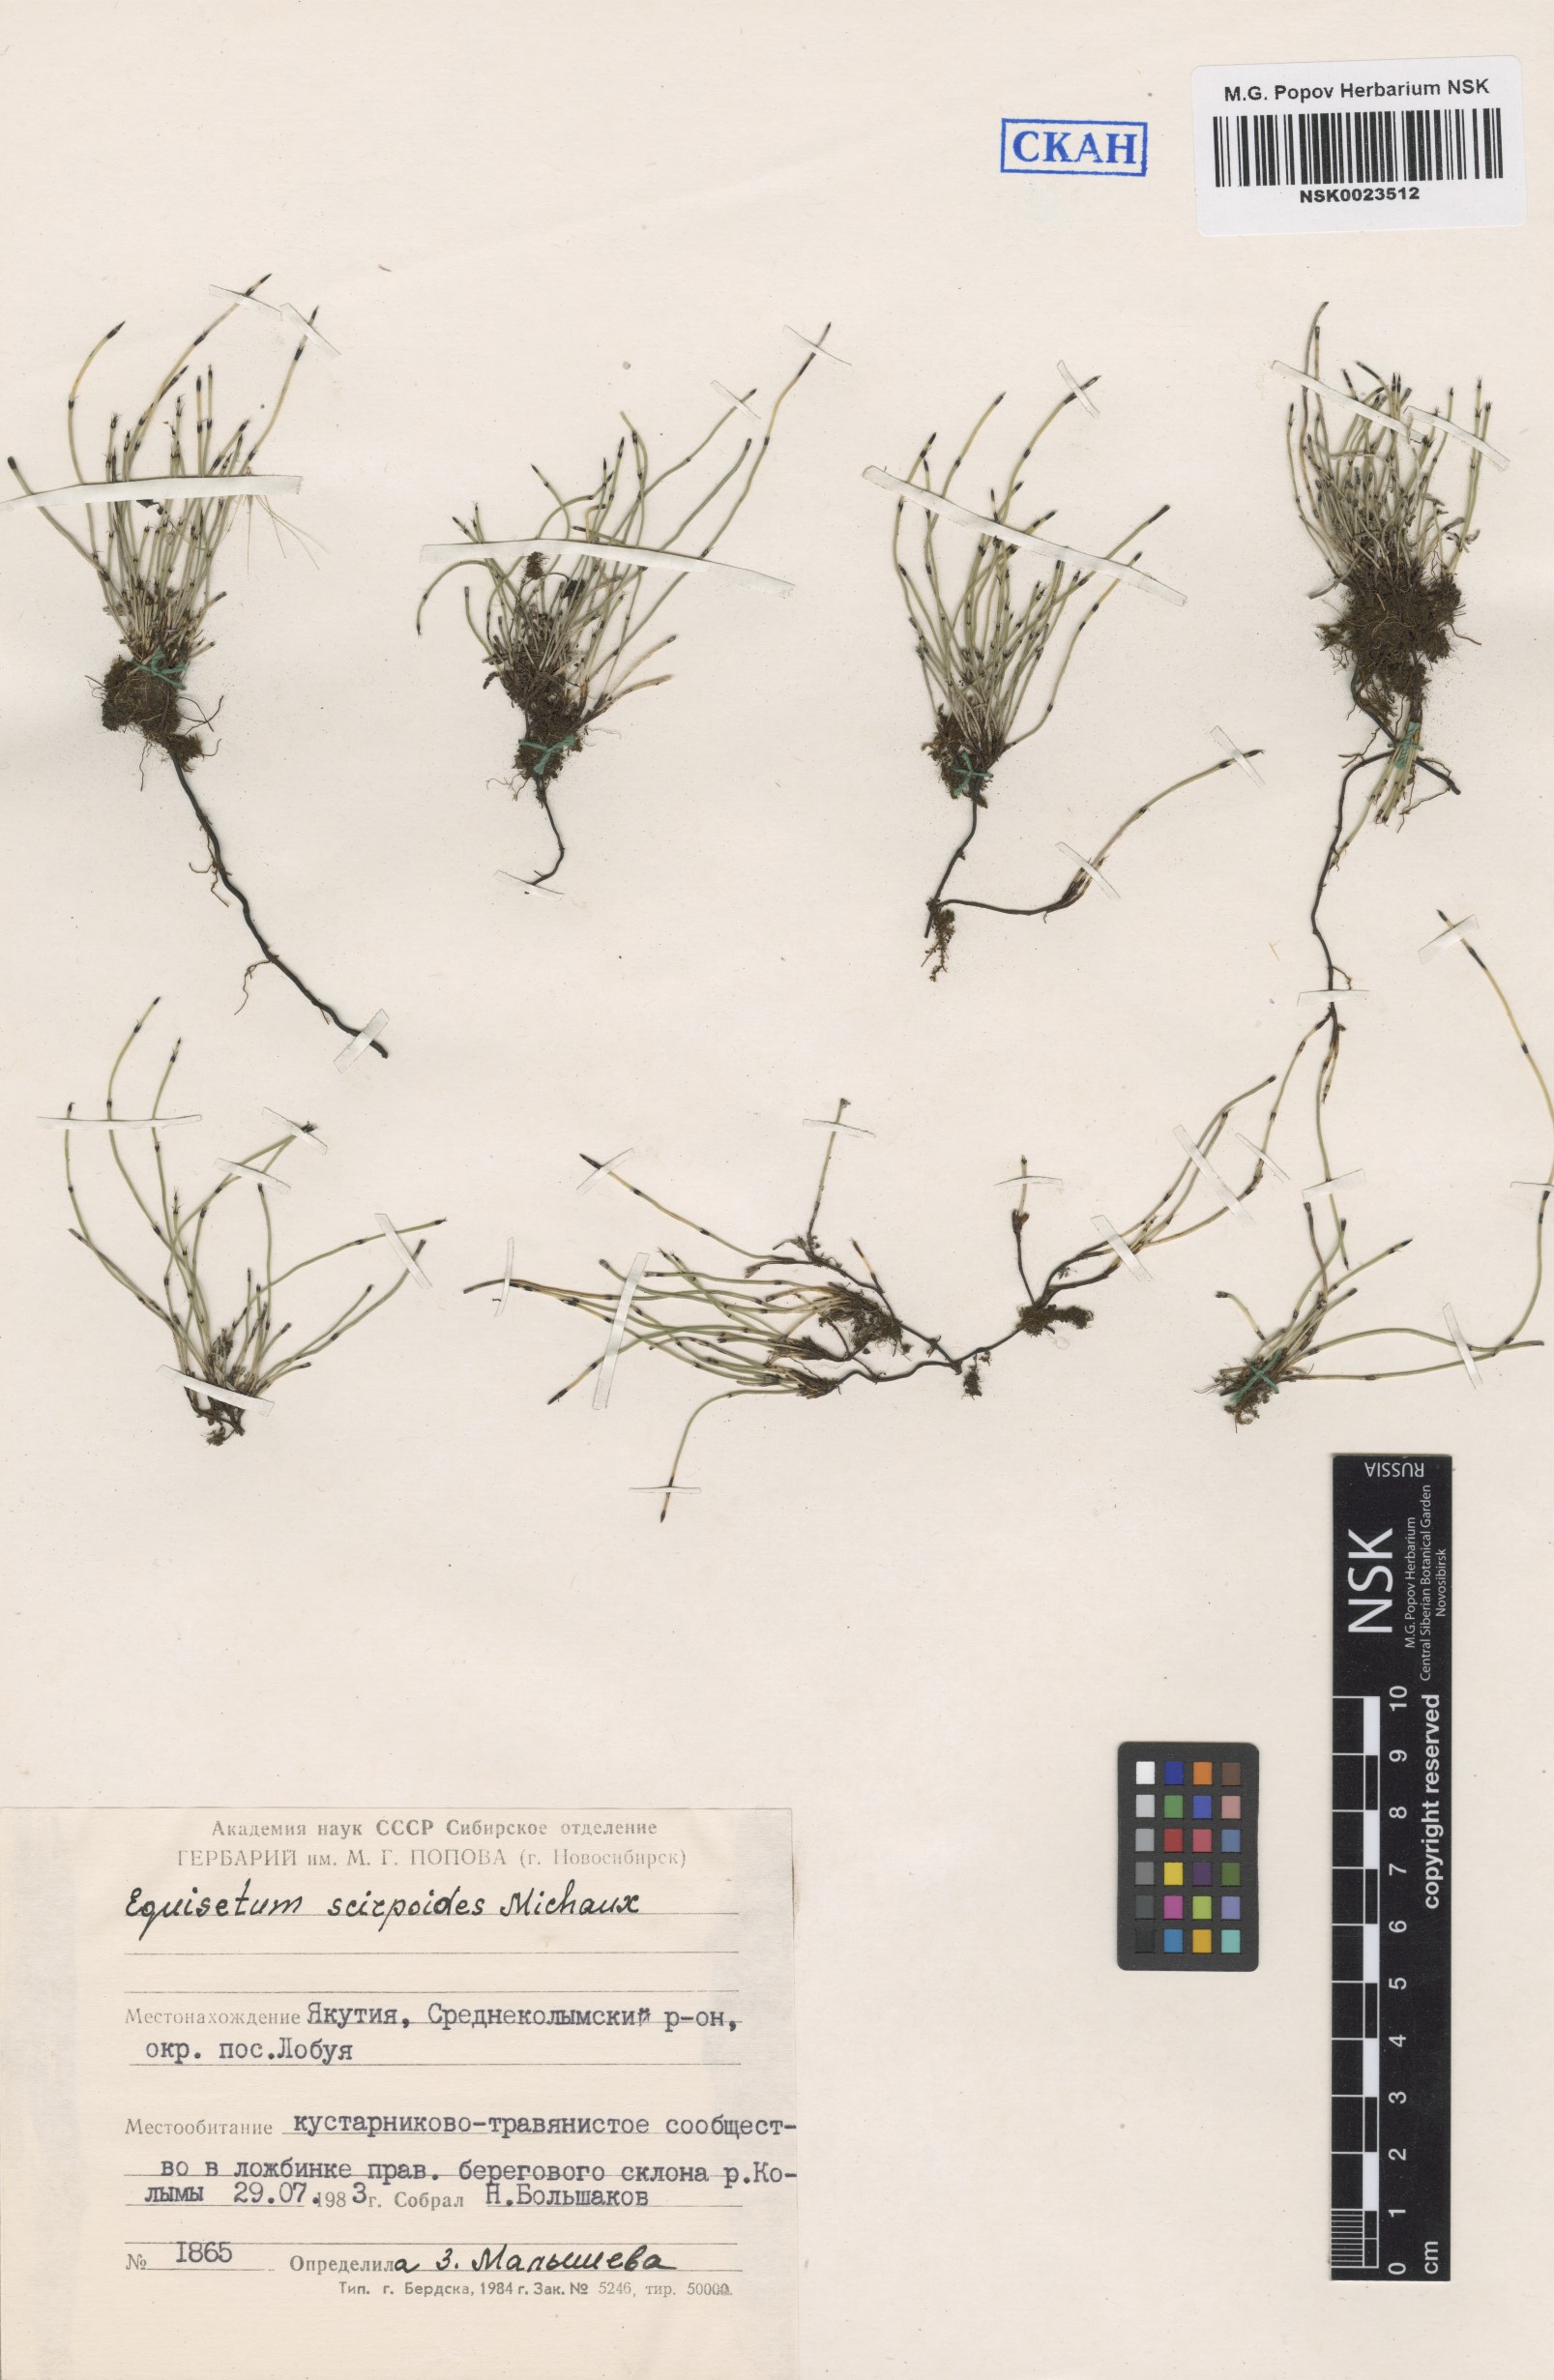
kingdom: Plantae
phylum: Tracheophyta
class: Polypodiopsida
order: Equisetales
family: Equisetaceae
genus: Equisetum
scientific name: Equisetum scirpoides
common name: Delicate horsetail
